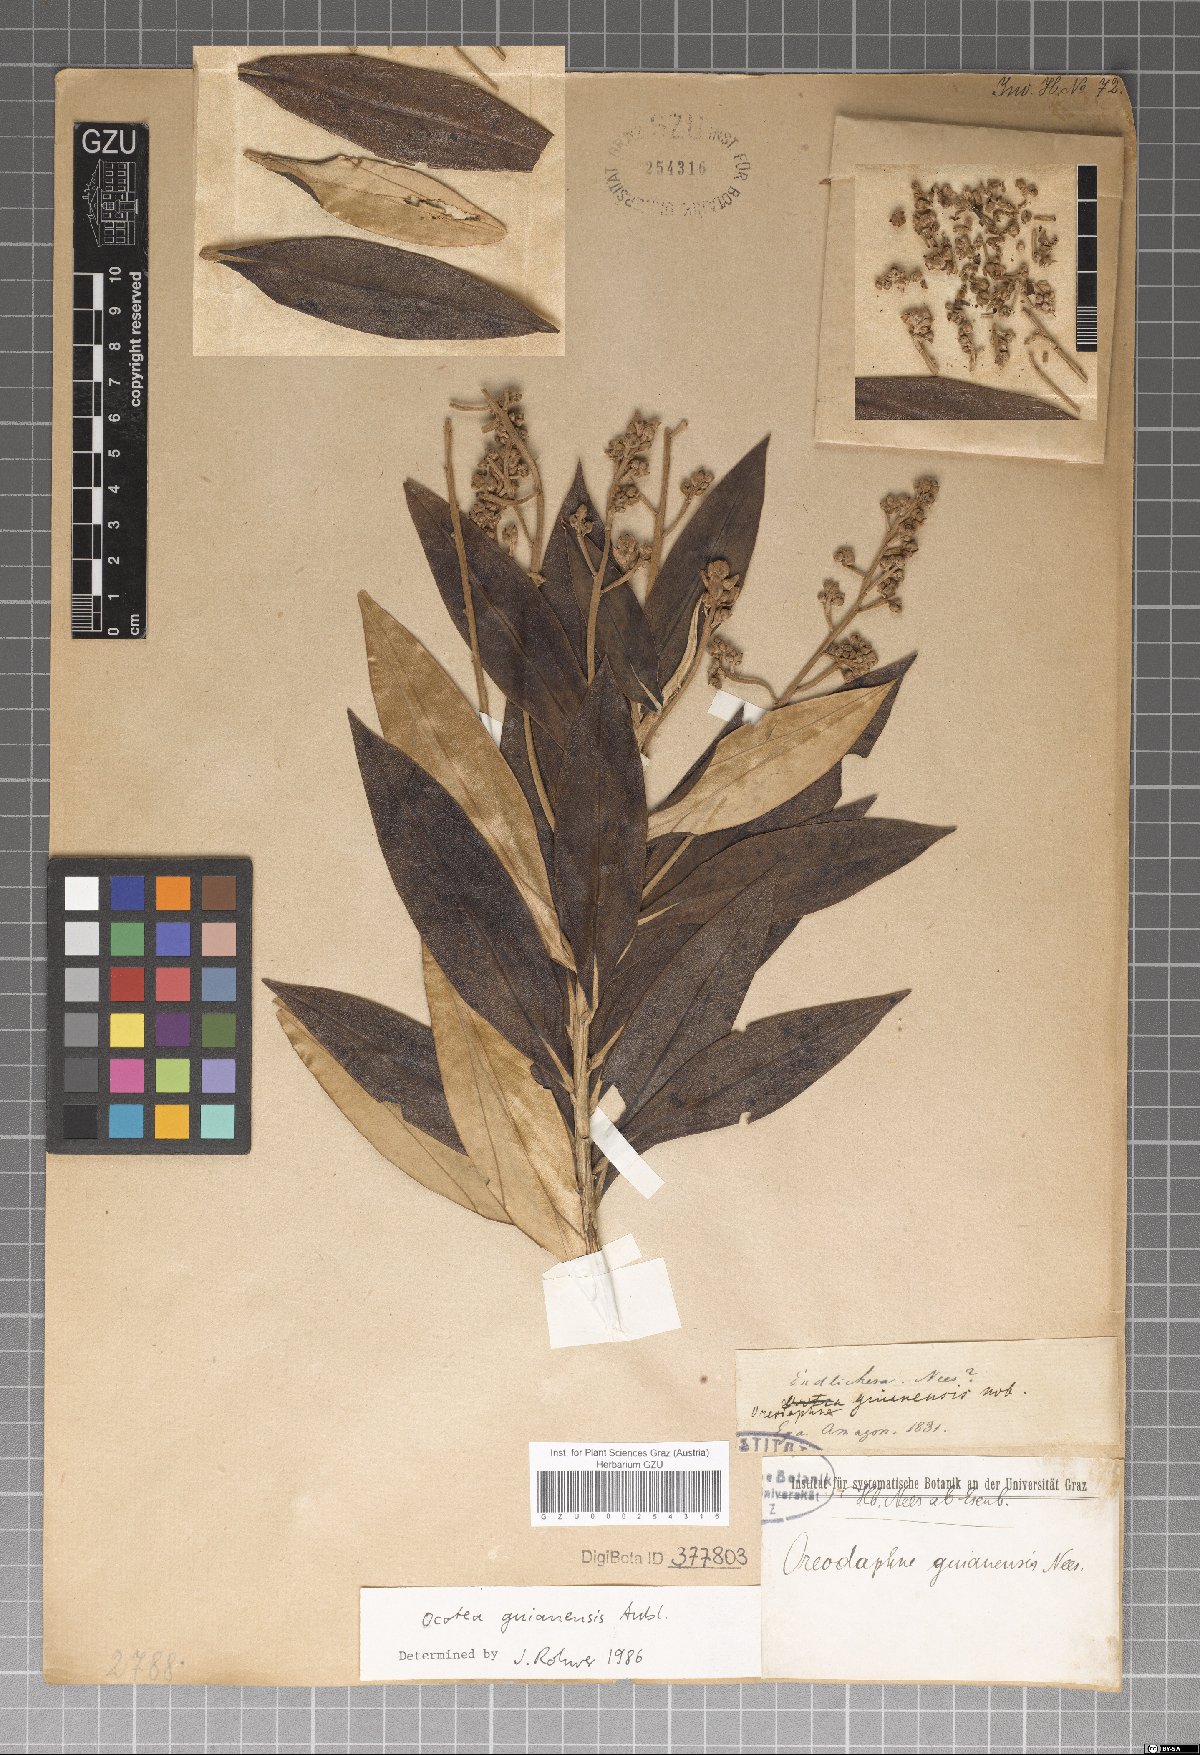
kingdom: Plantae
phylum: Tracheophyta
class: Magnoliopsida
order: Laurales
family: Lauraceae
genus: Endlicheria
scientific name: Endlicheria anomala
